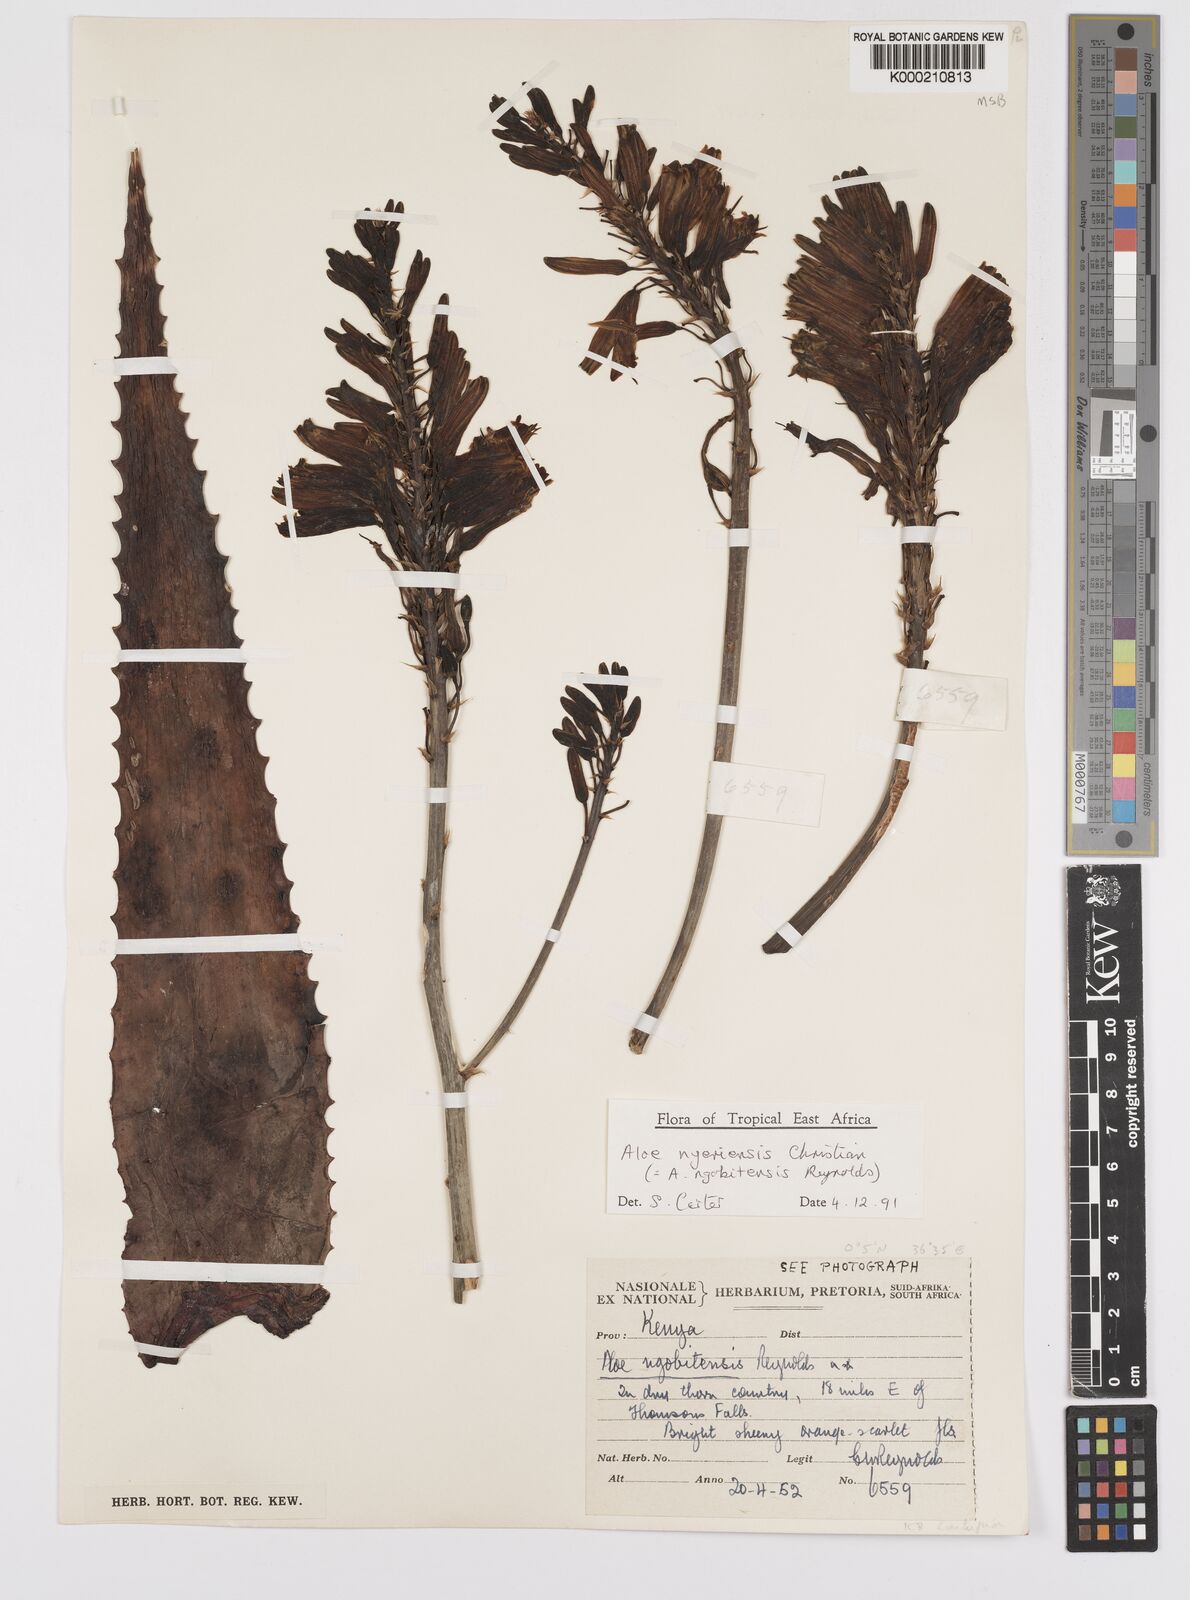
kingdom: Plantae
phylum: Tracheophyta
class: Liliopsida
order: Asparagales
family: Asphodelaceae
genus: Aloe
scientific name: Aloe nyeriensis
